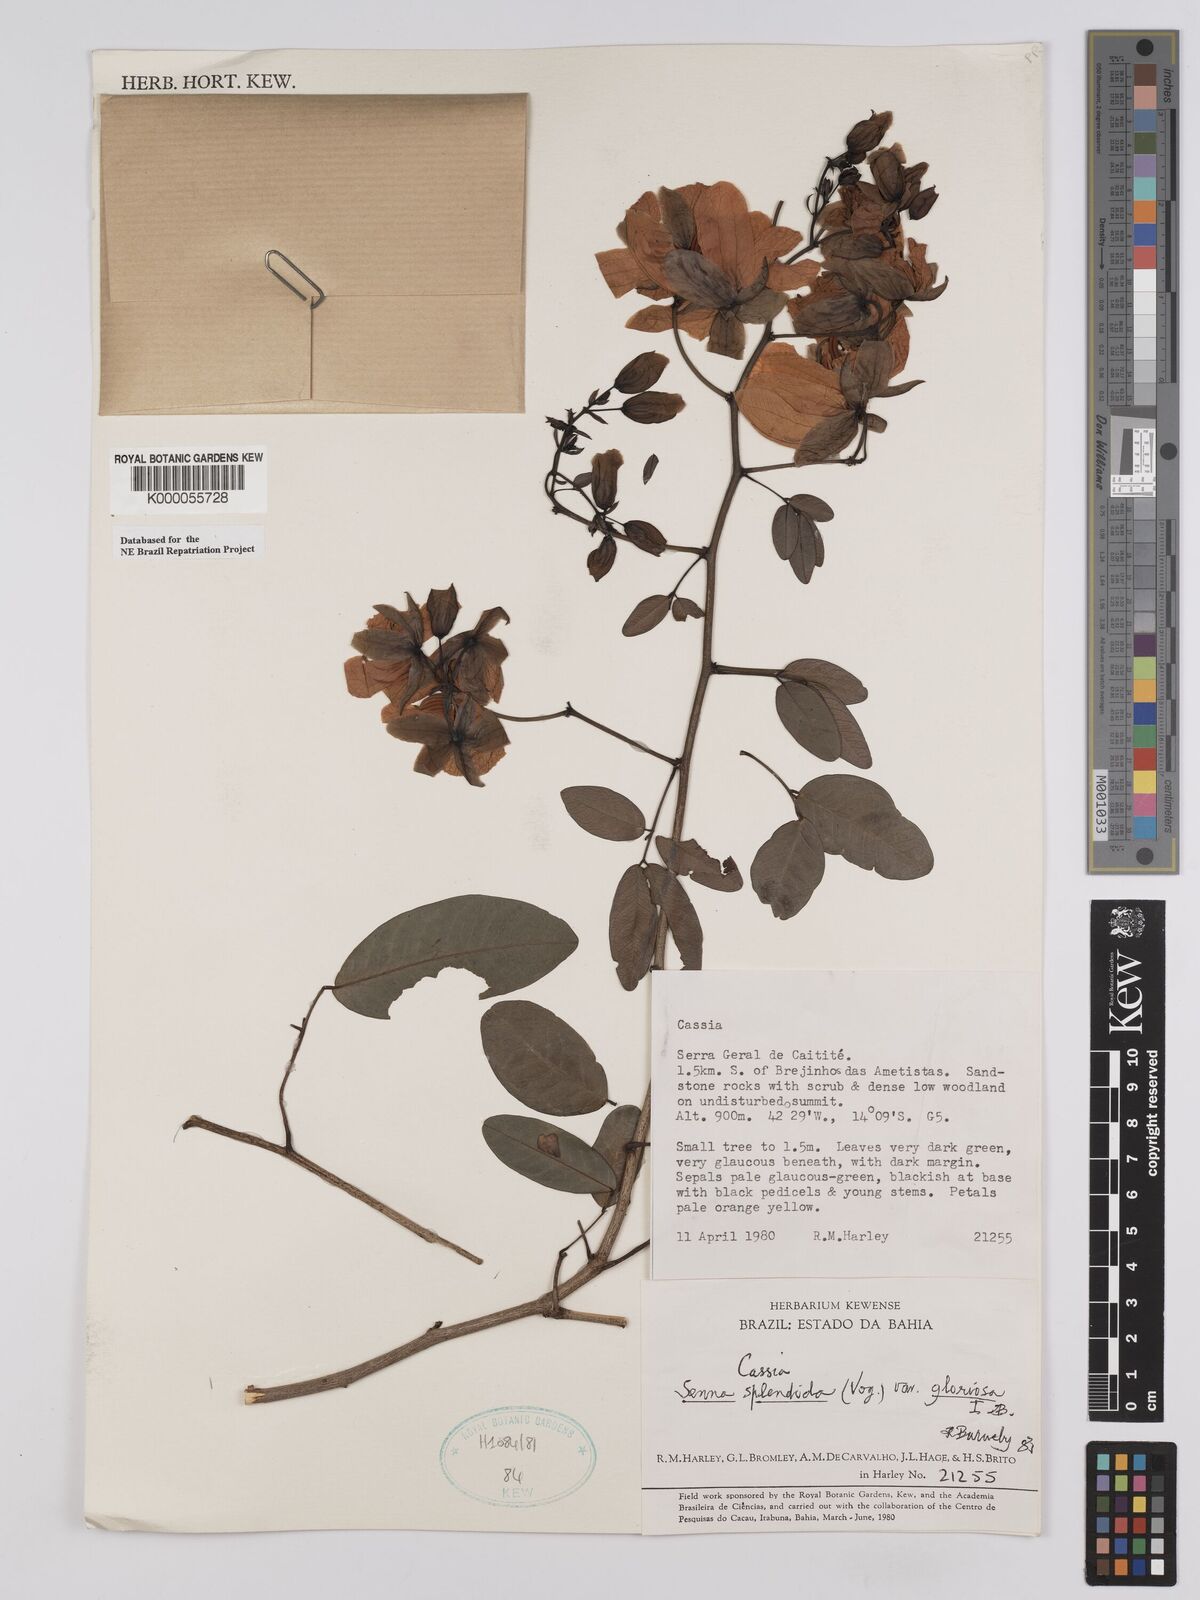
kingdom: Plantae
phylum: Tracheophyta
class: Magnoliopsida
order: Fabales
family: Fabaceae
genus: Senna
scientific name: Senna splendida
